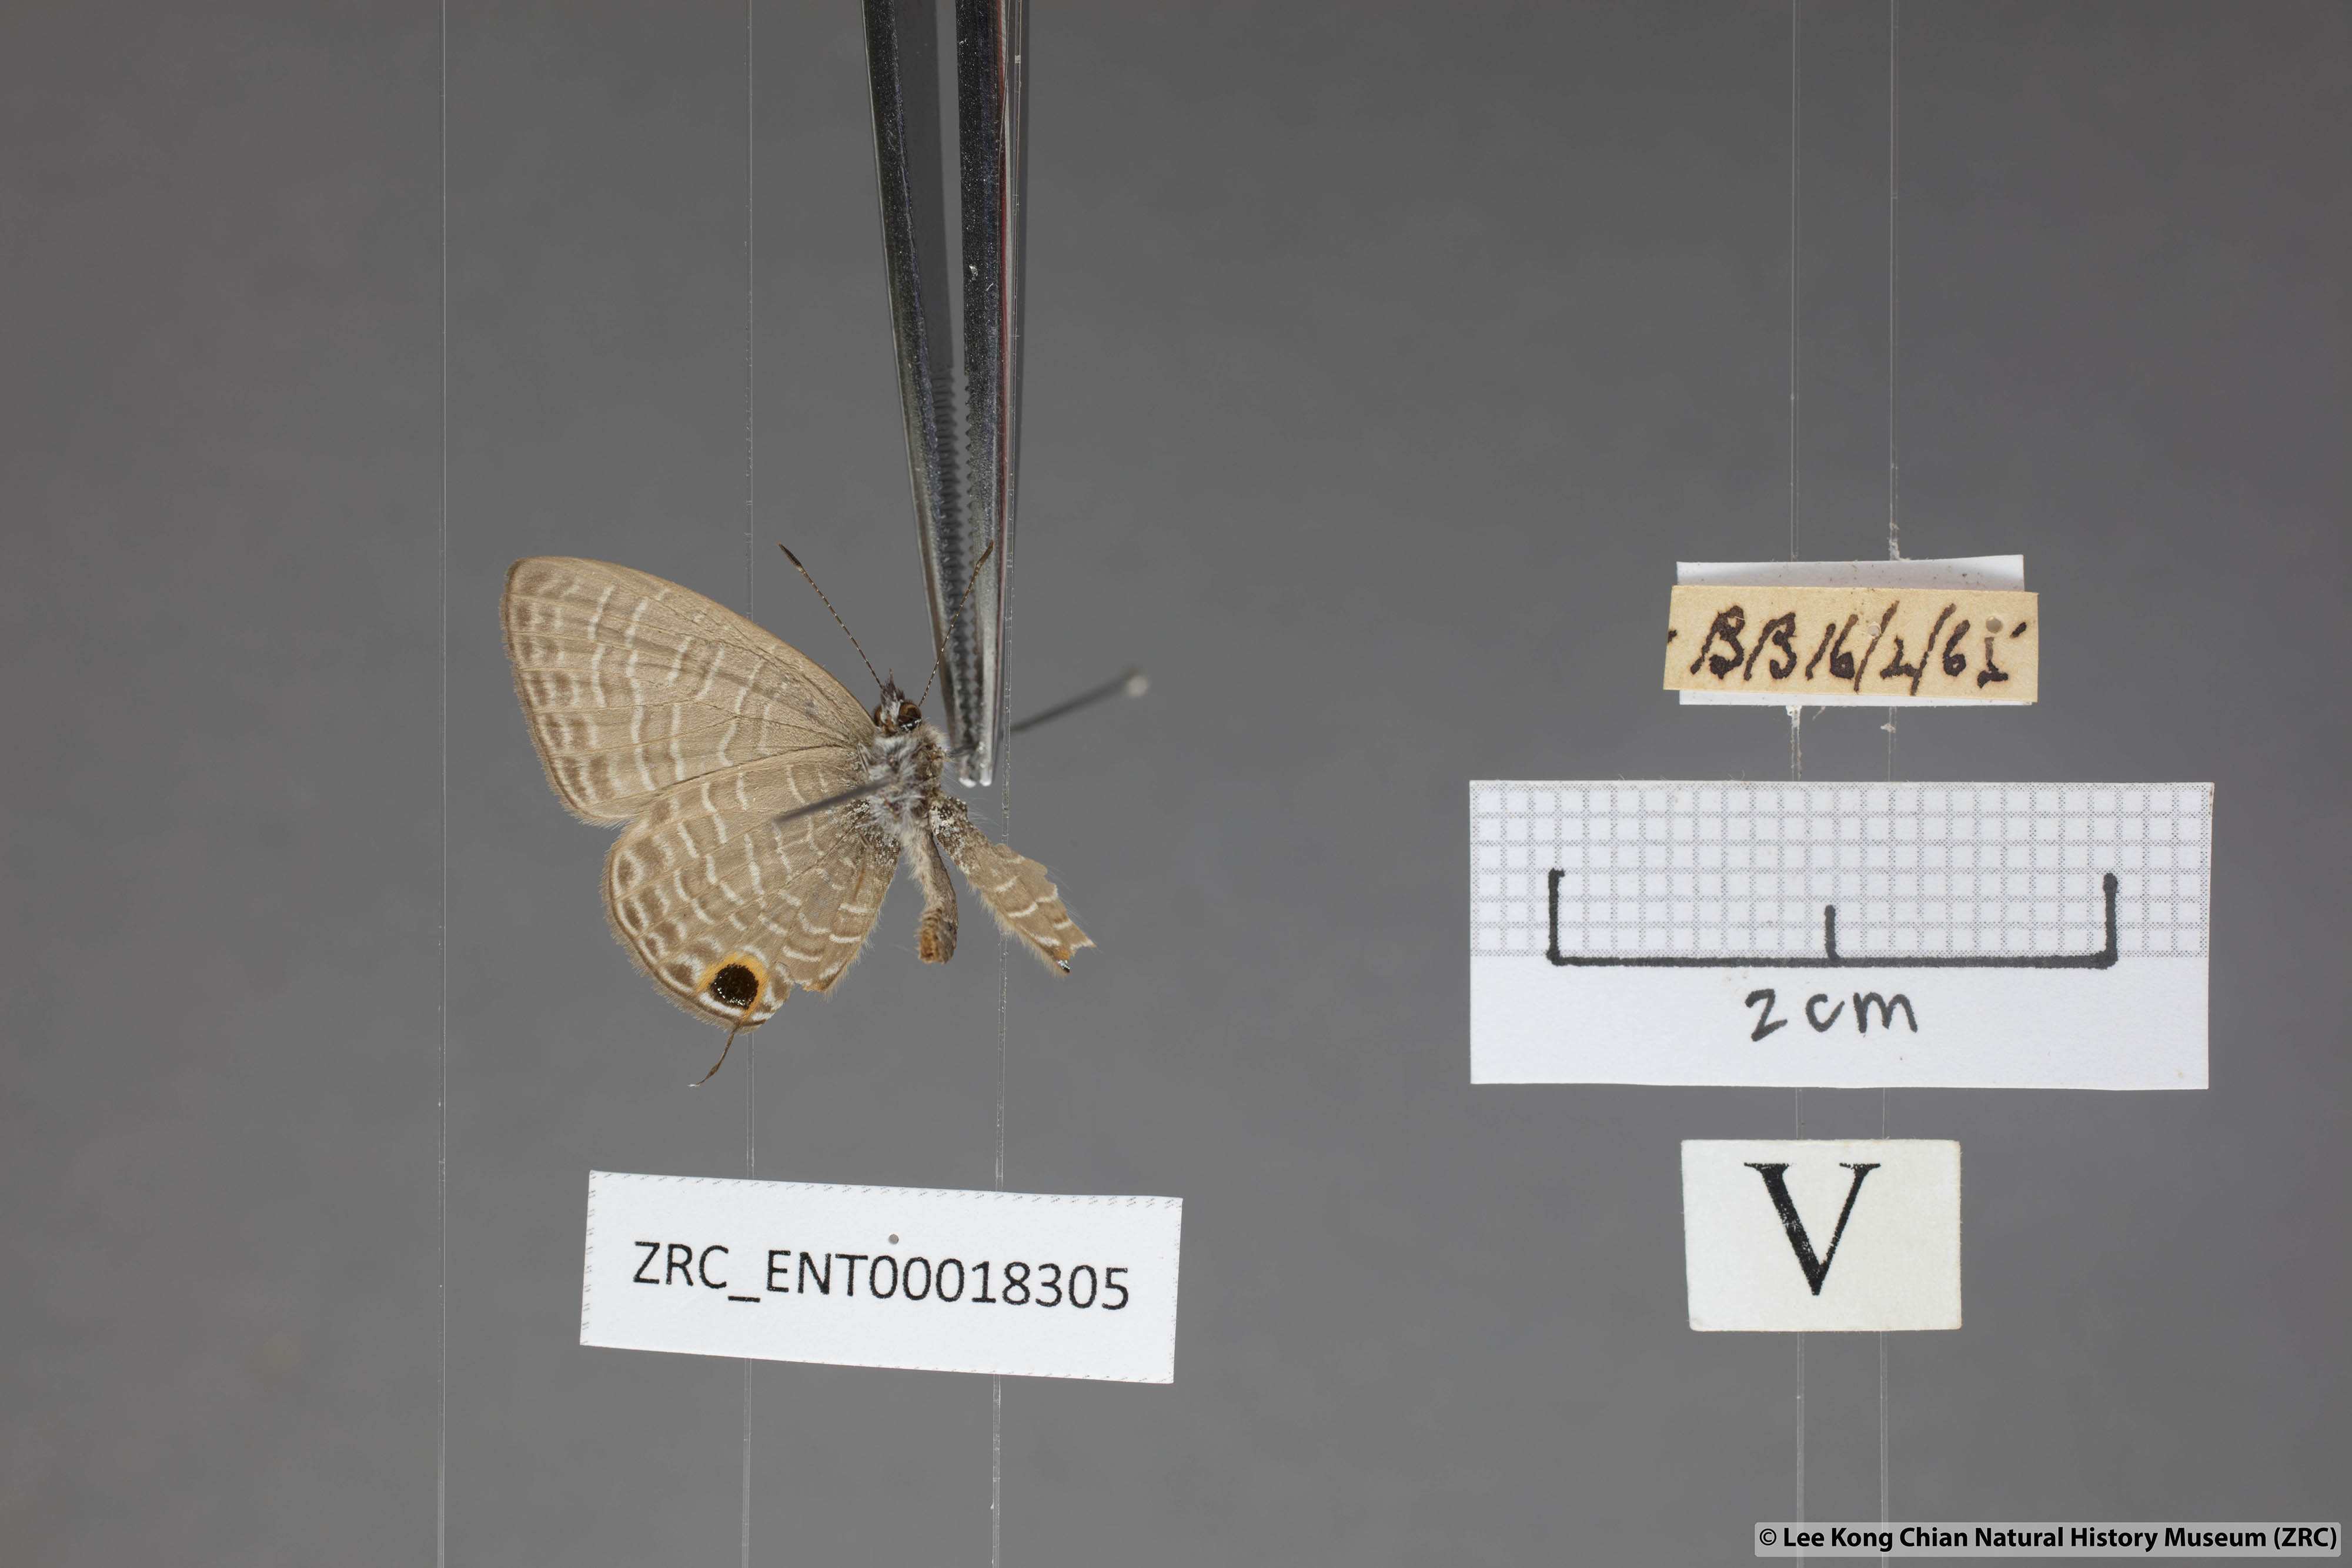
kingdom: Animalia
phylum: Arthropoda
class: Insecta
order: Lepidoptera
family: Lycaenidae
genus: Nacaduba
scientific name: Nacaduba berenice
